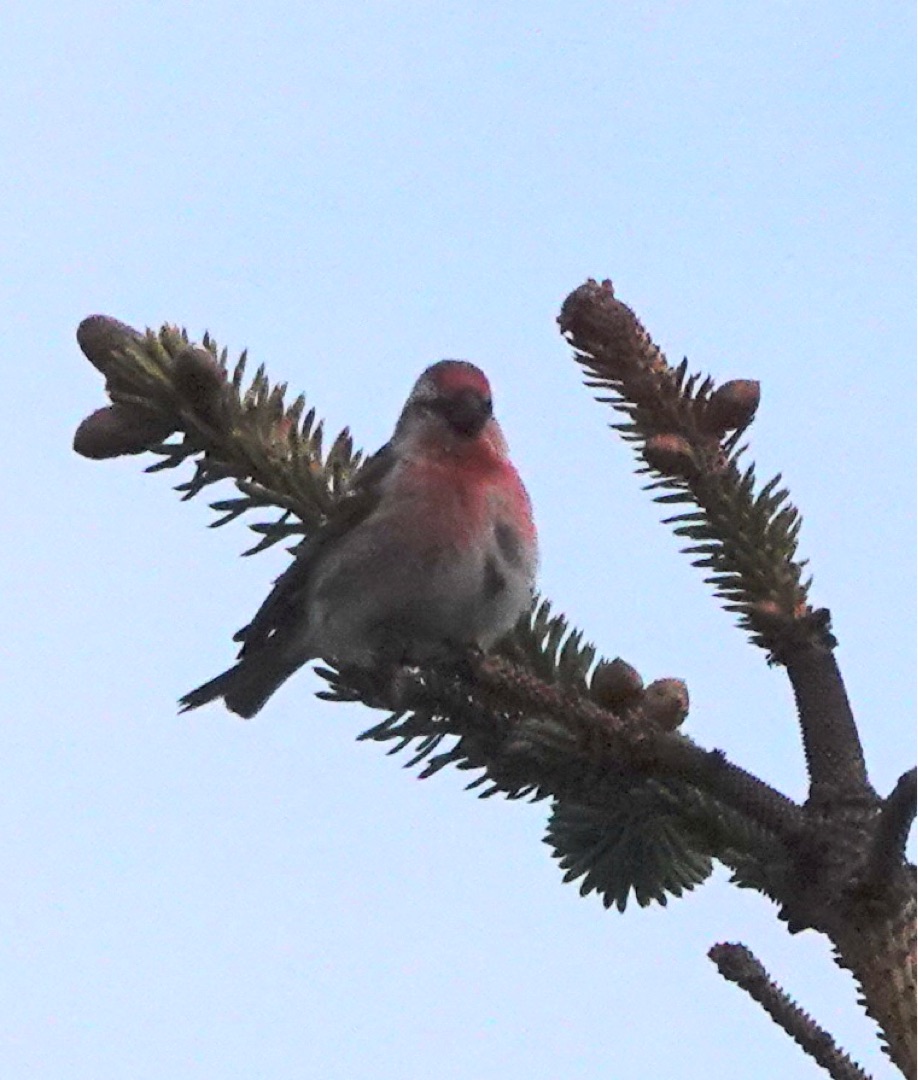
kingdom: Animalia
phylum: Chordata
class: Aves
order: Passeriformes
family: Fringillidae
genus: Acanthis
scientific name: Acanthis flammea
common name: Lille gråsisken
